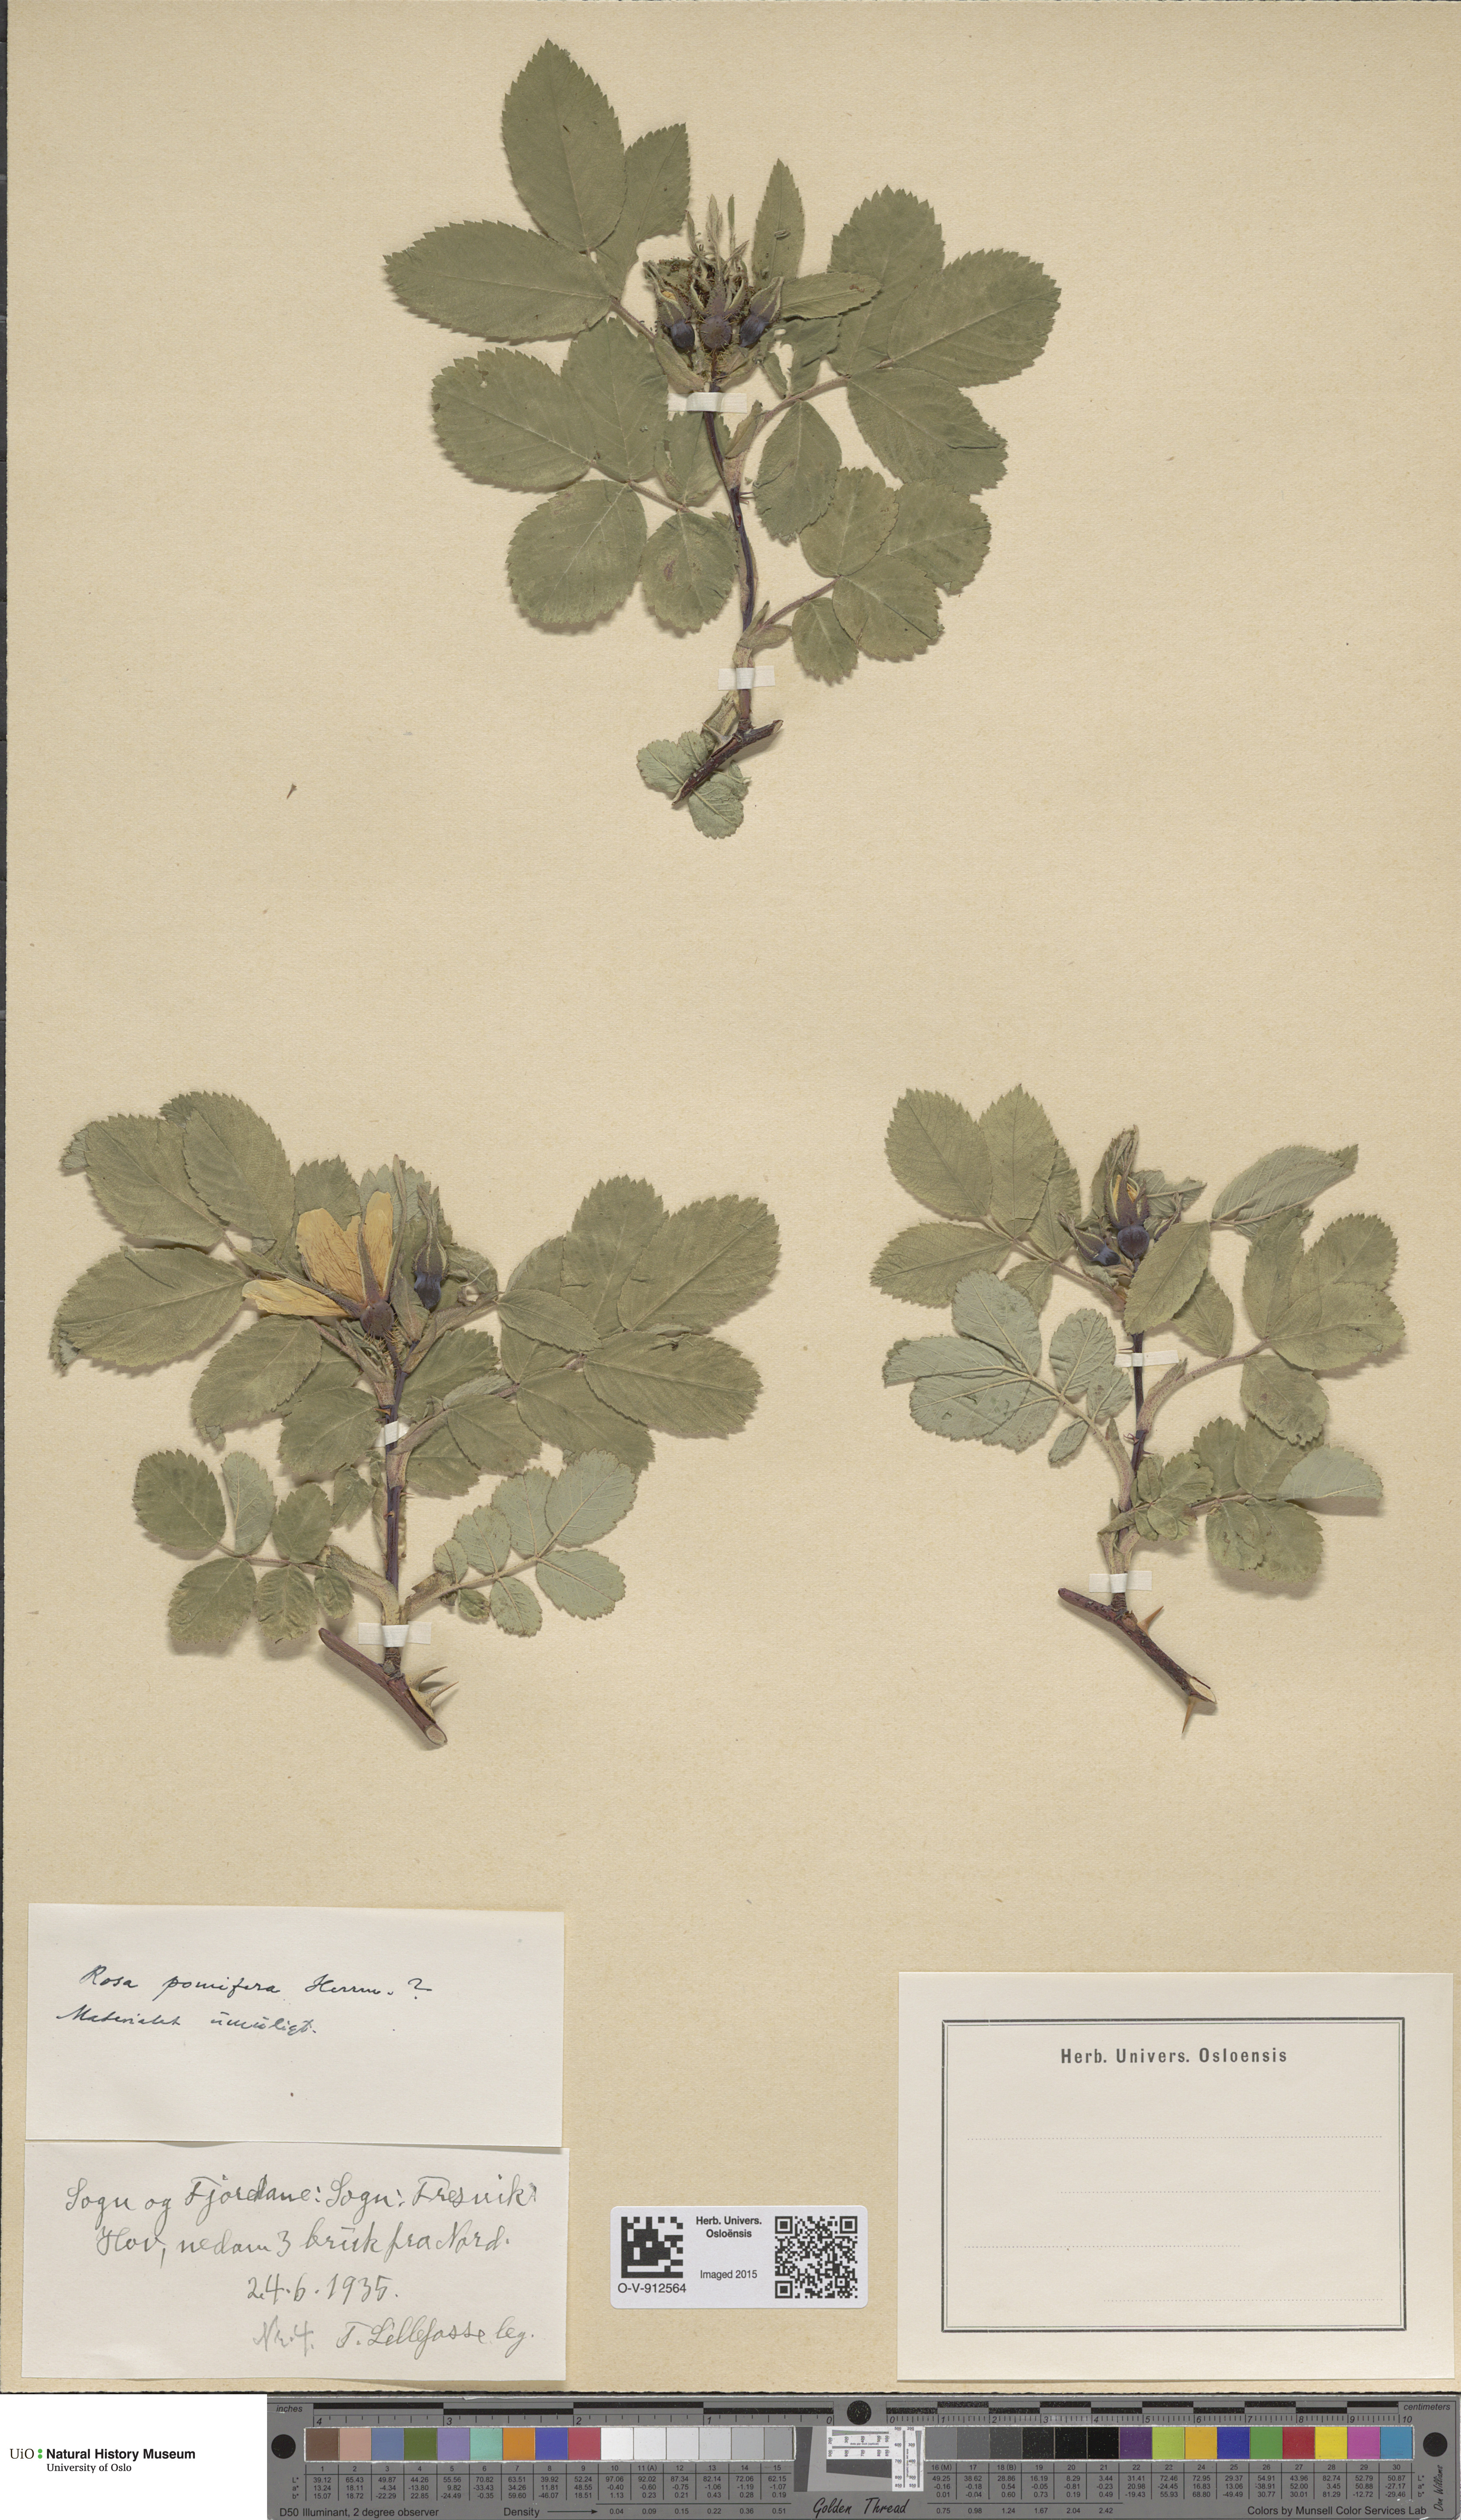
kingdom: Plantae
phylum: Tracheophyta
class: Magnoliopsida
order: Rosales
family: Rosaceae
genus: Rosa
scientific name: Rosa villosa
